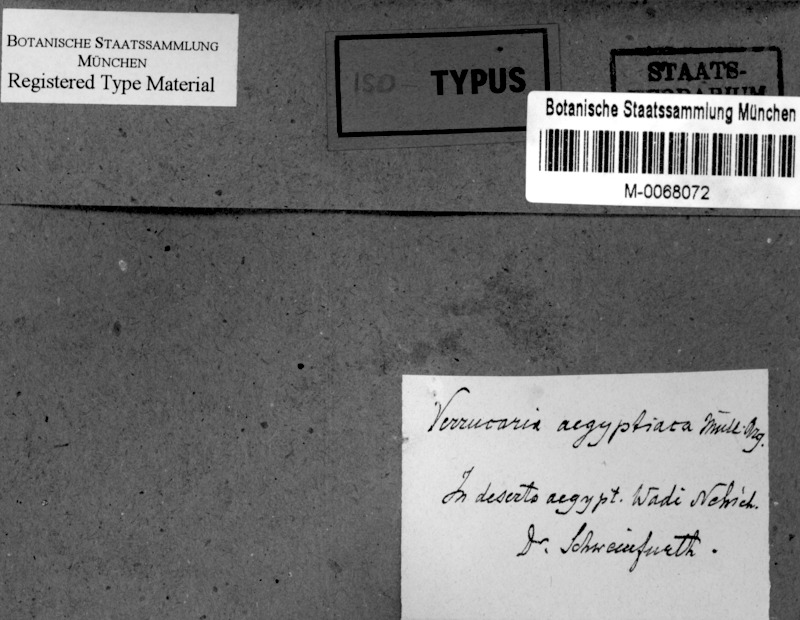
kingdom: Fungi
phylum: Ascomycota
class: Dothideomycetes
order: Botryosphaeriales
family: Phyllostictaceae
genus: Guignardia
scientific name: Guignardia
